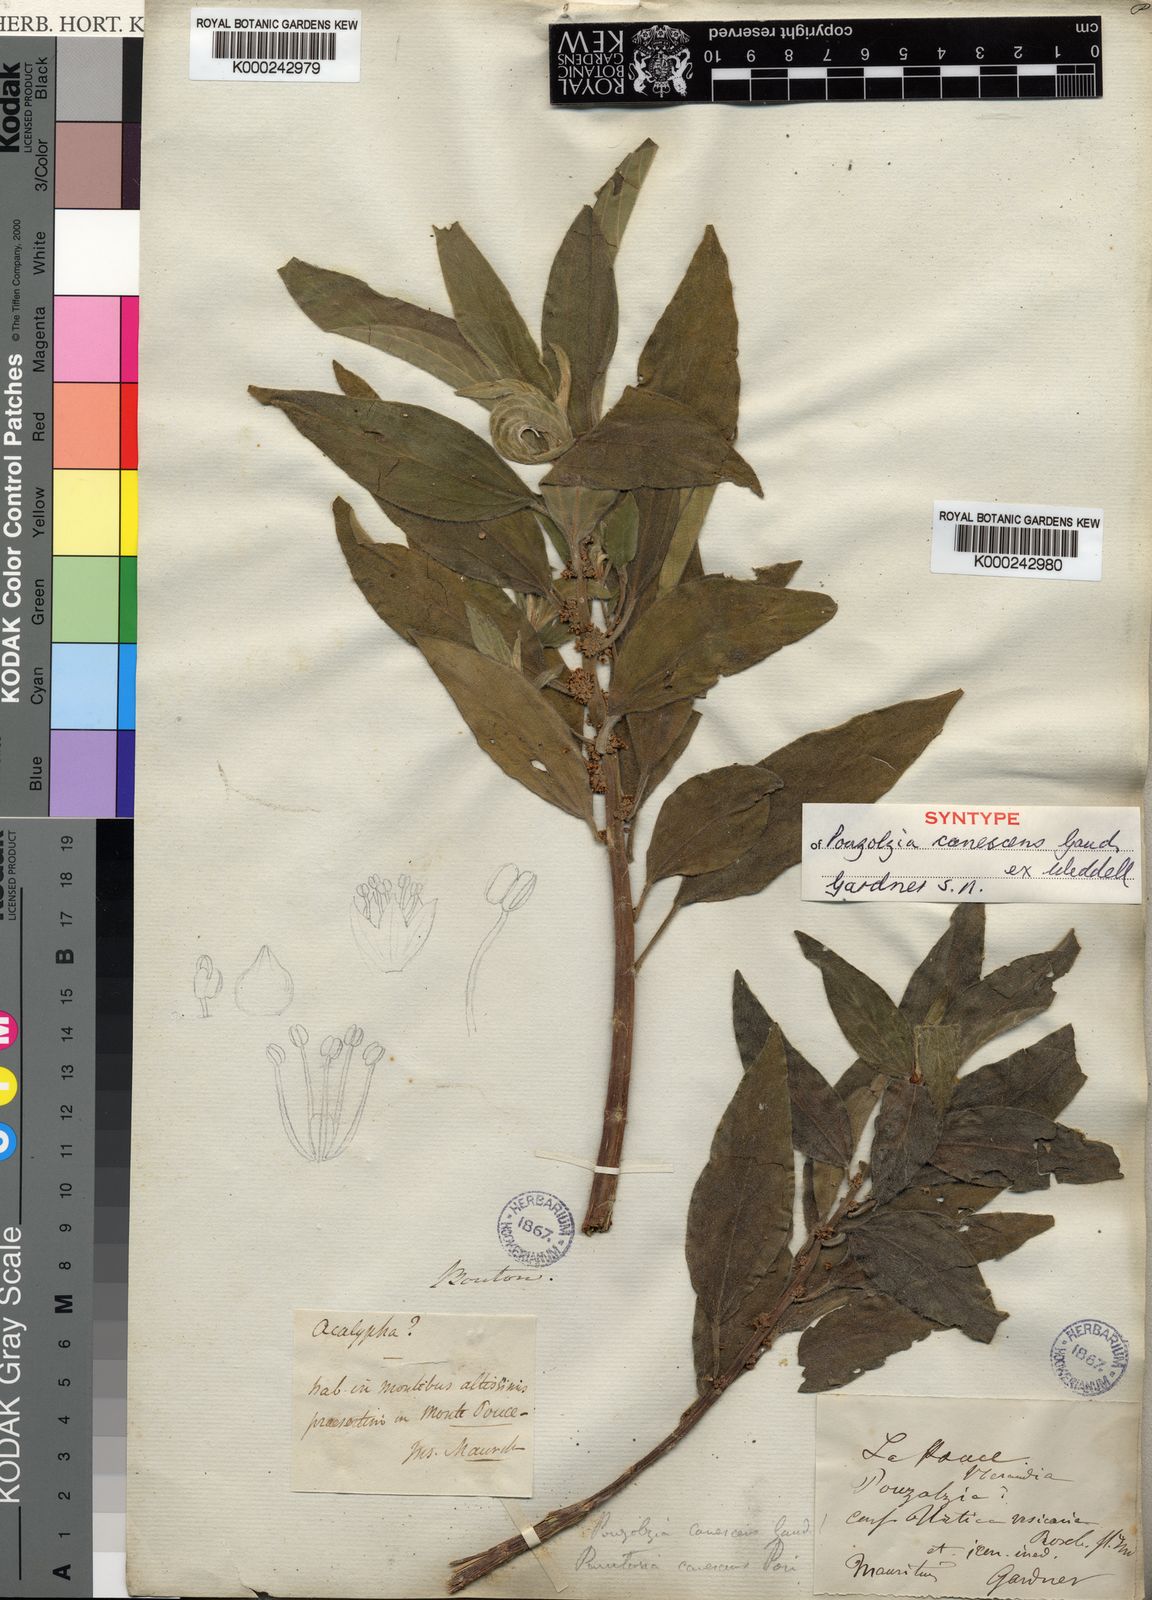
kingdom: Plantae
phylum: Tracheophyta
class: Magnoliopsida
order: Rosales
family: Urticaceae
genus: Pouzolzia
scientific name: Pouzolzia laevigata
